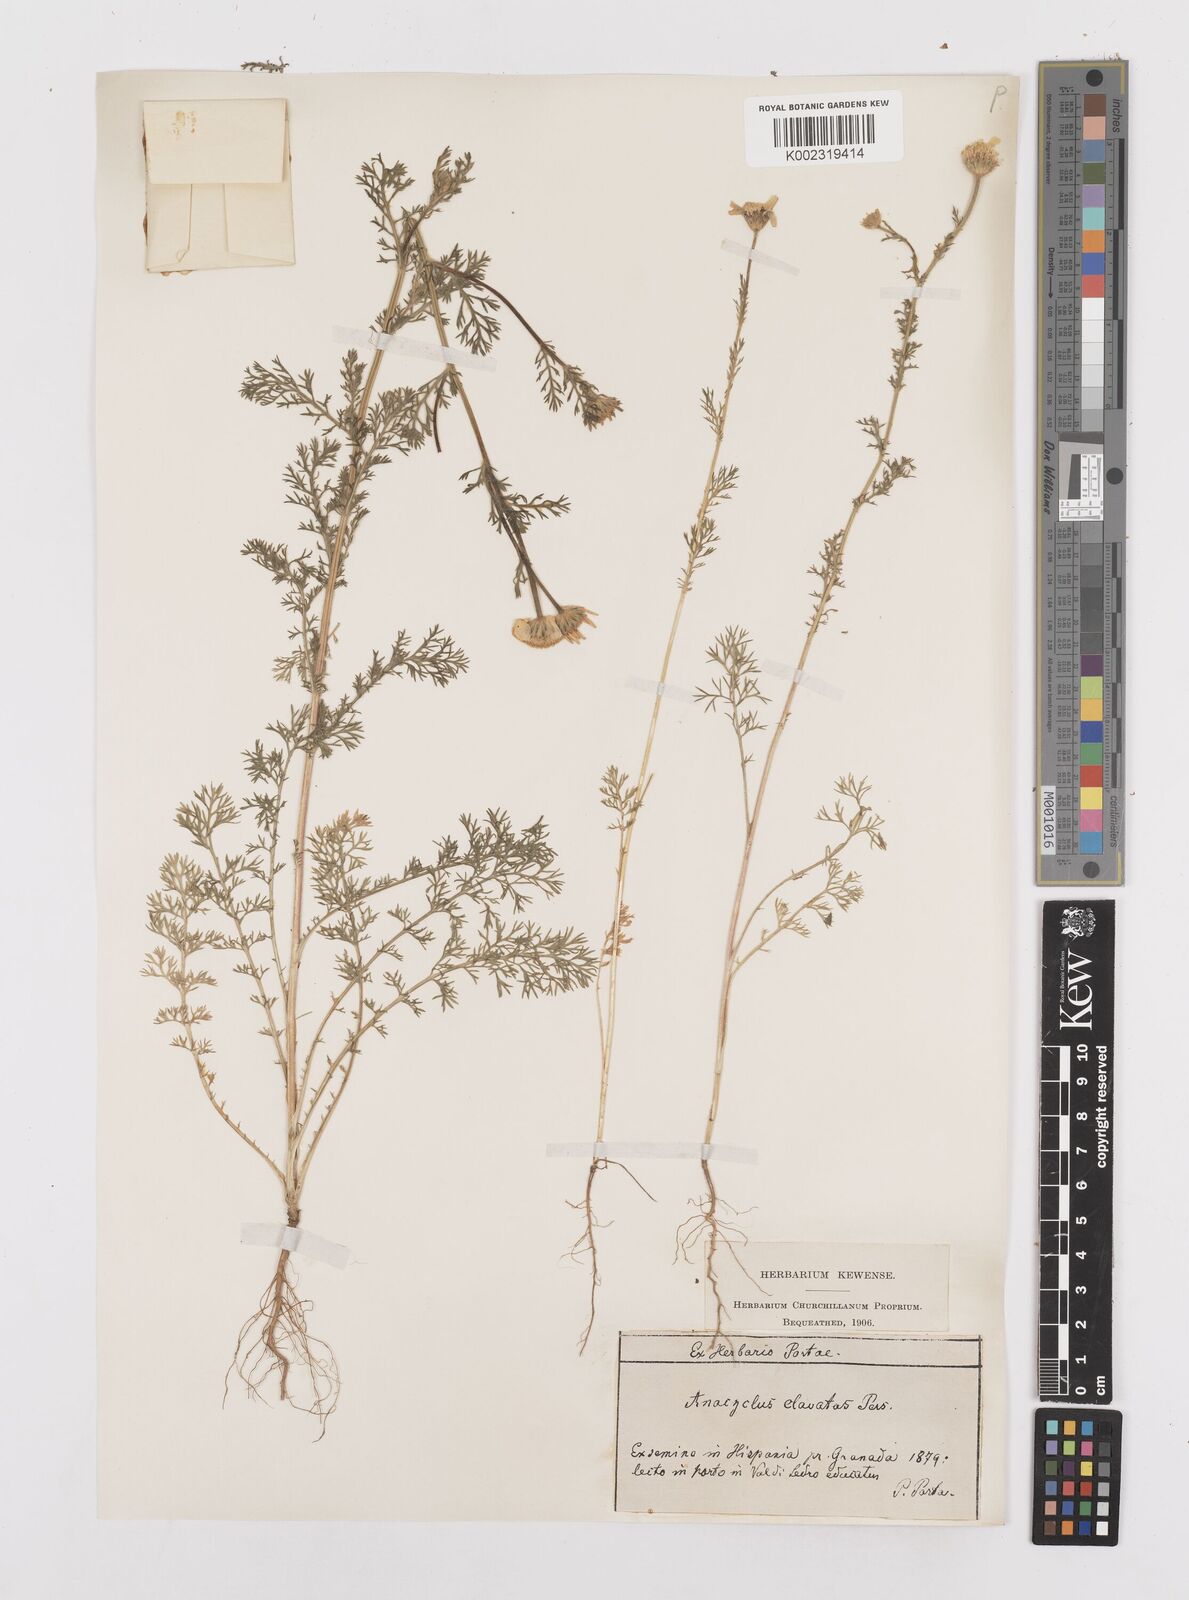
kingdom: Plantae
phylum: Tracheophyta
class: Magnoliopsida
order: Asterales
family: Asteraceae
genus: Anacyclus
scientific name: Anacyclus clavatus
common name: Whitebuttons
